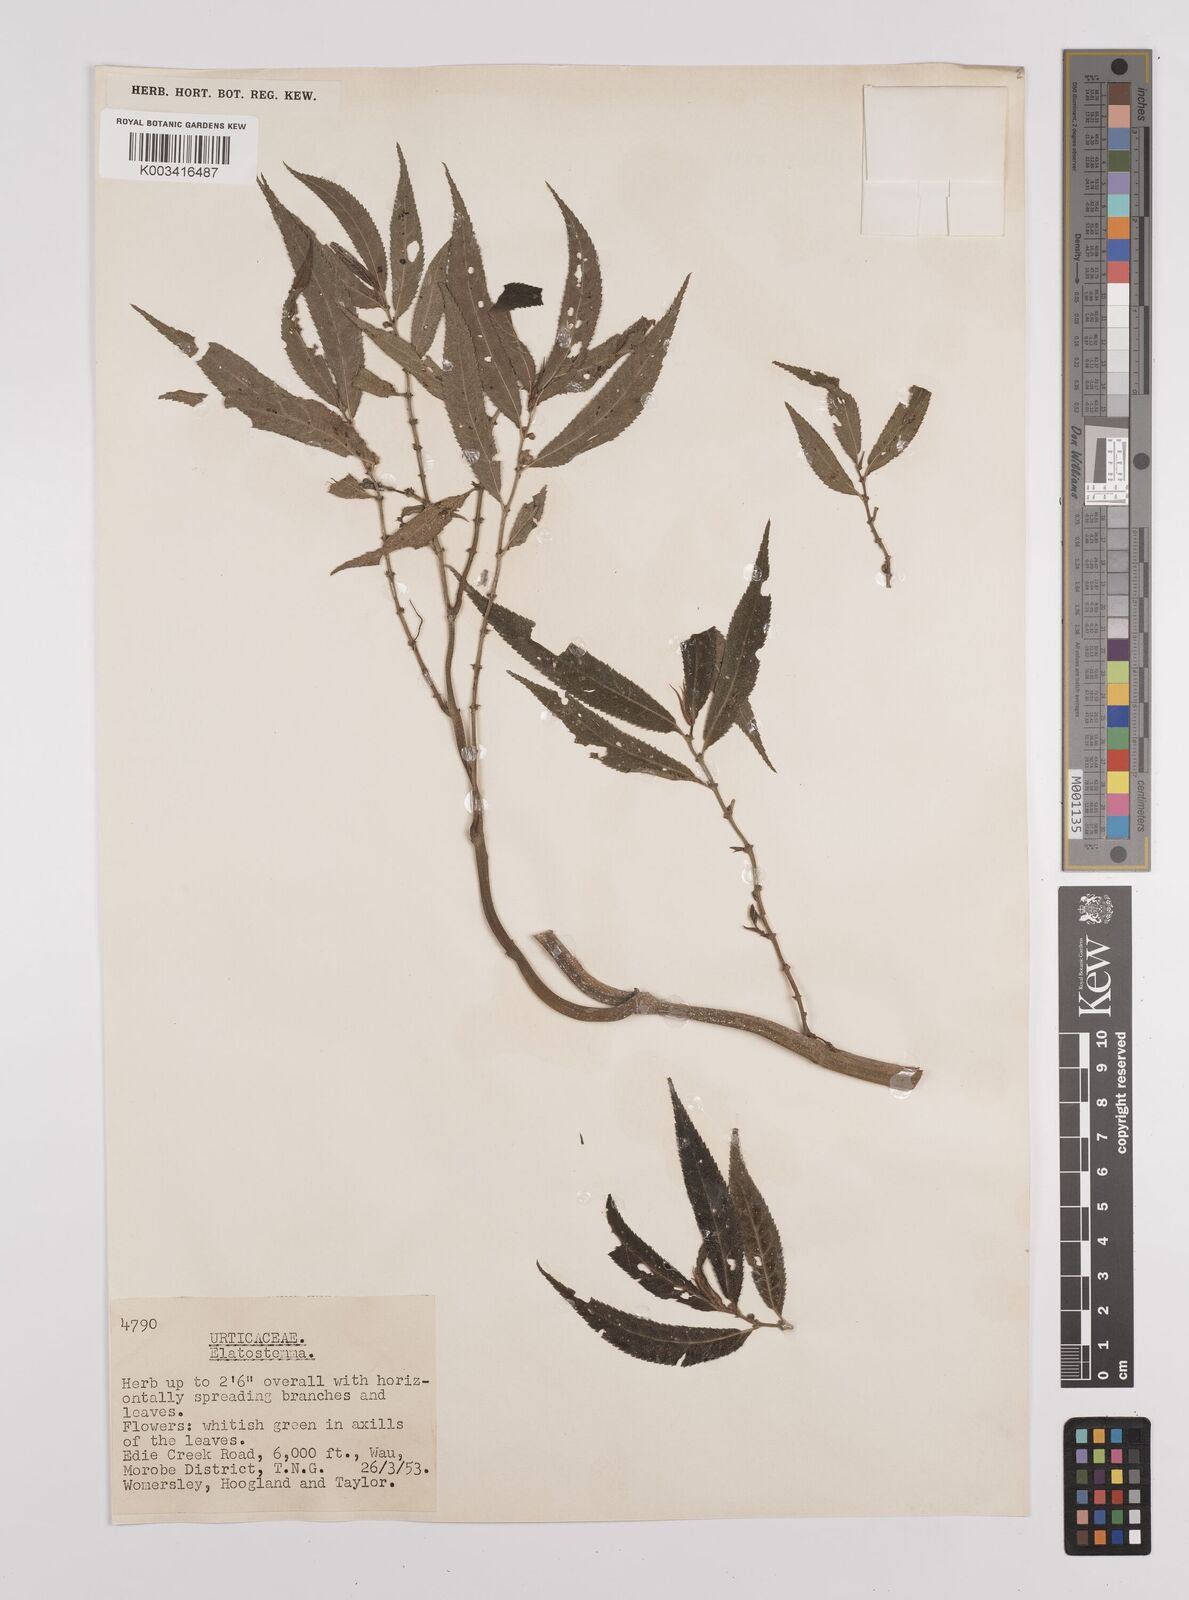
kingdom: Plantae
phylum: Tracheophyta
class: Magnoliopsida
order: Rosales
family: Urticaceae
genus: Elatostema
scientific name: Elatostema
